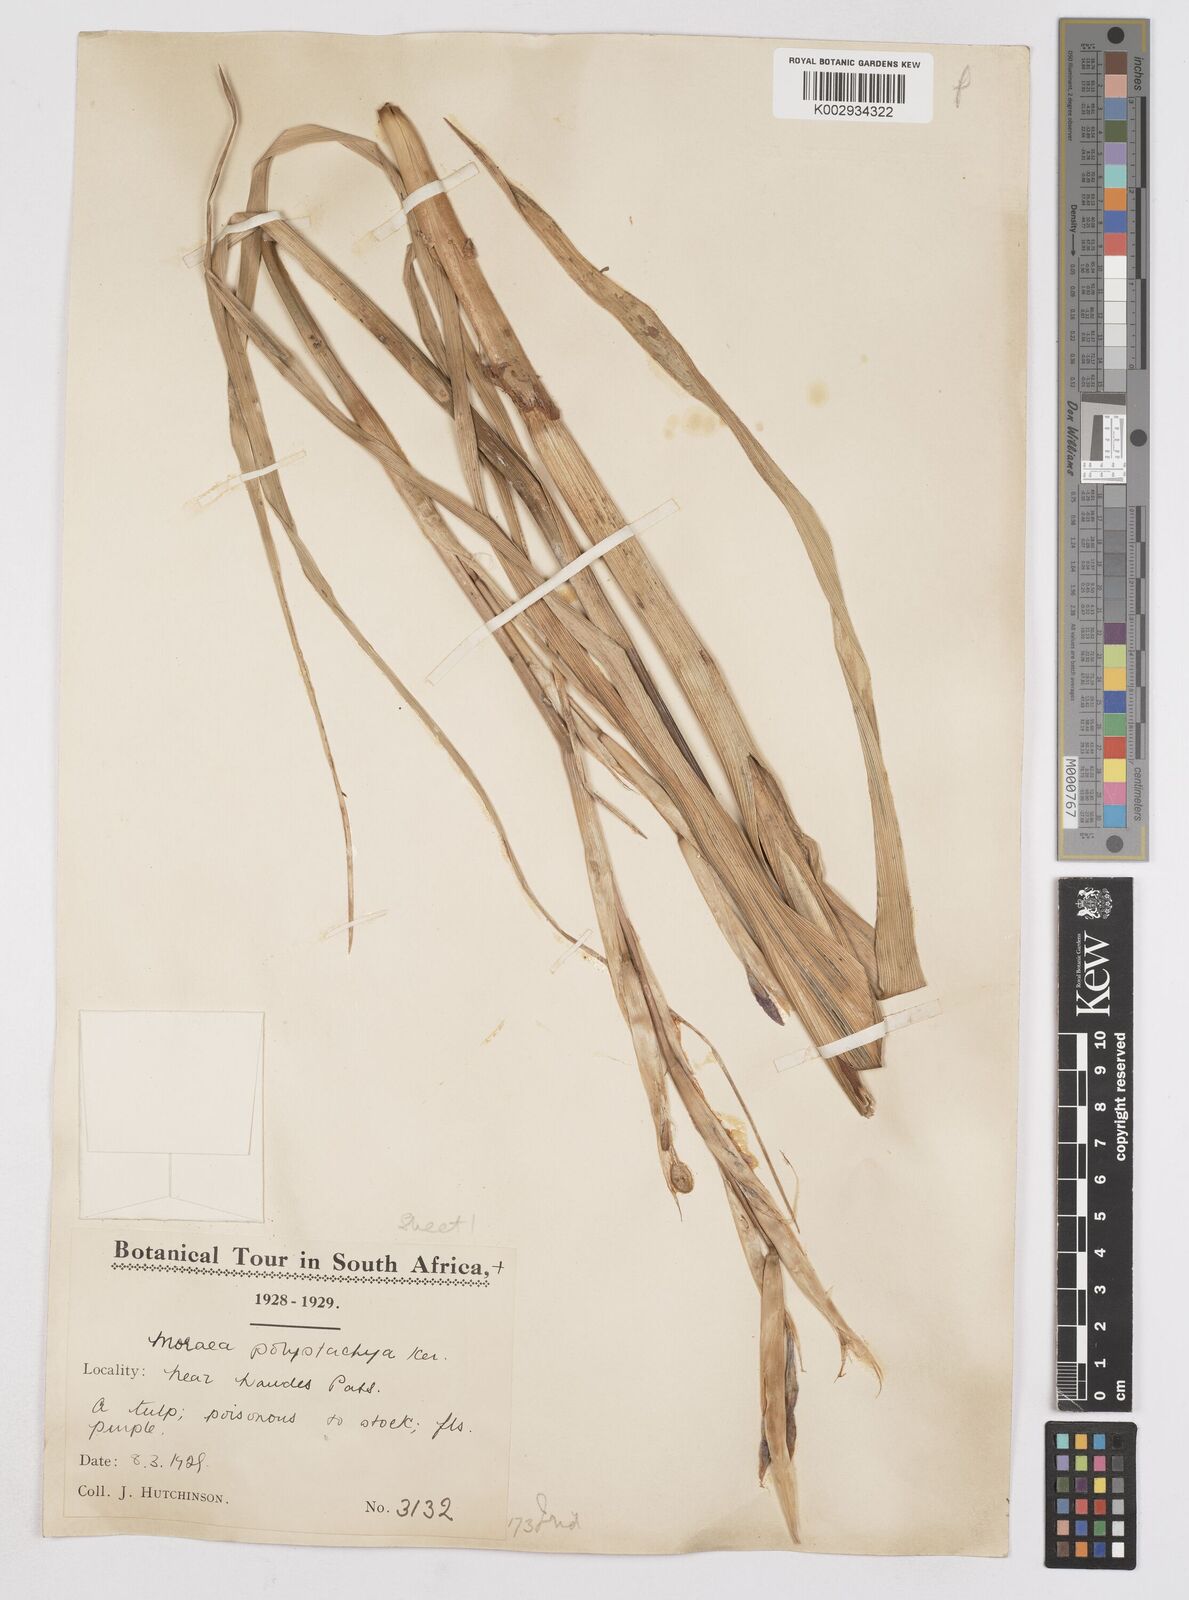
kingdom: Plantae
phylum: Tracheophyta
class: Liliopsida
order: Asparagales
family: Iridaceae
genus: Moraea
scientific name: Moraea polystachya
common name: Blue-tulip
